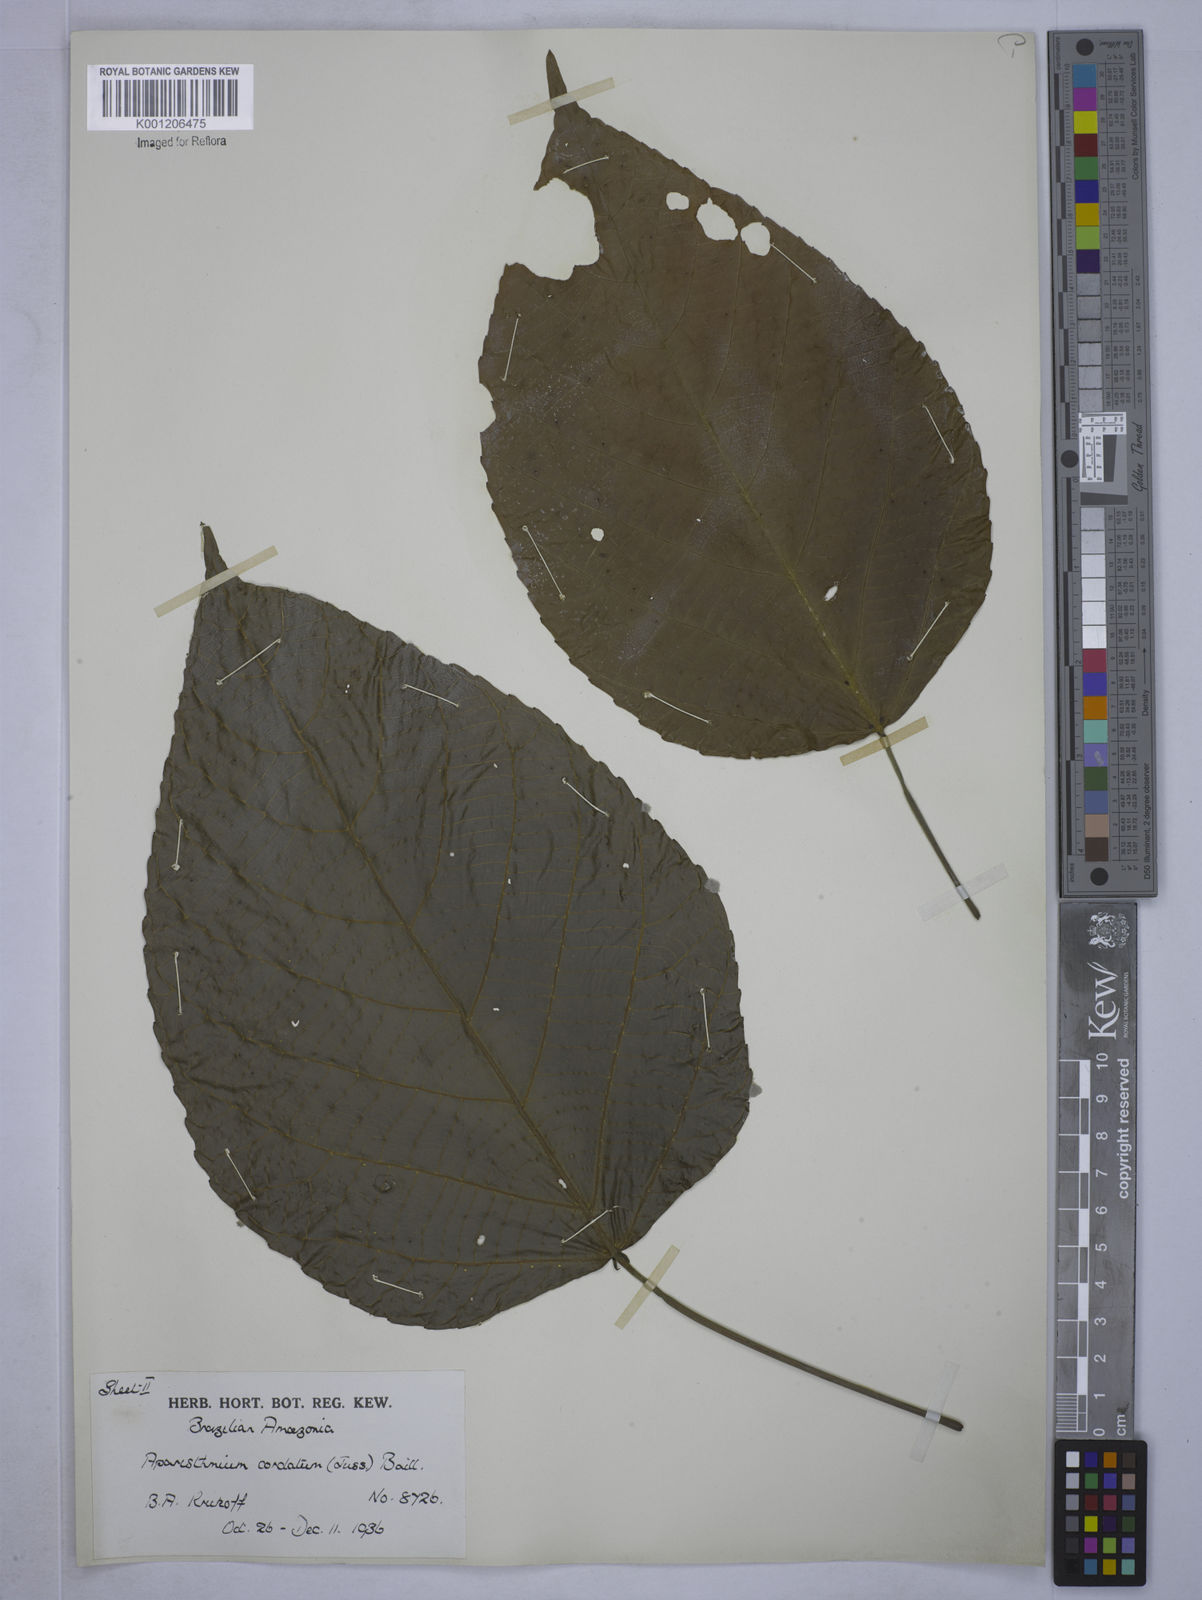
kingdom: Plantae
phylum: Tracheophyta
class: Magnoliopsida
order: Malpighiales
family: Euphorbiaceae
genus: Aparisthmium
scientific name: Aparisthmium cordatum
